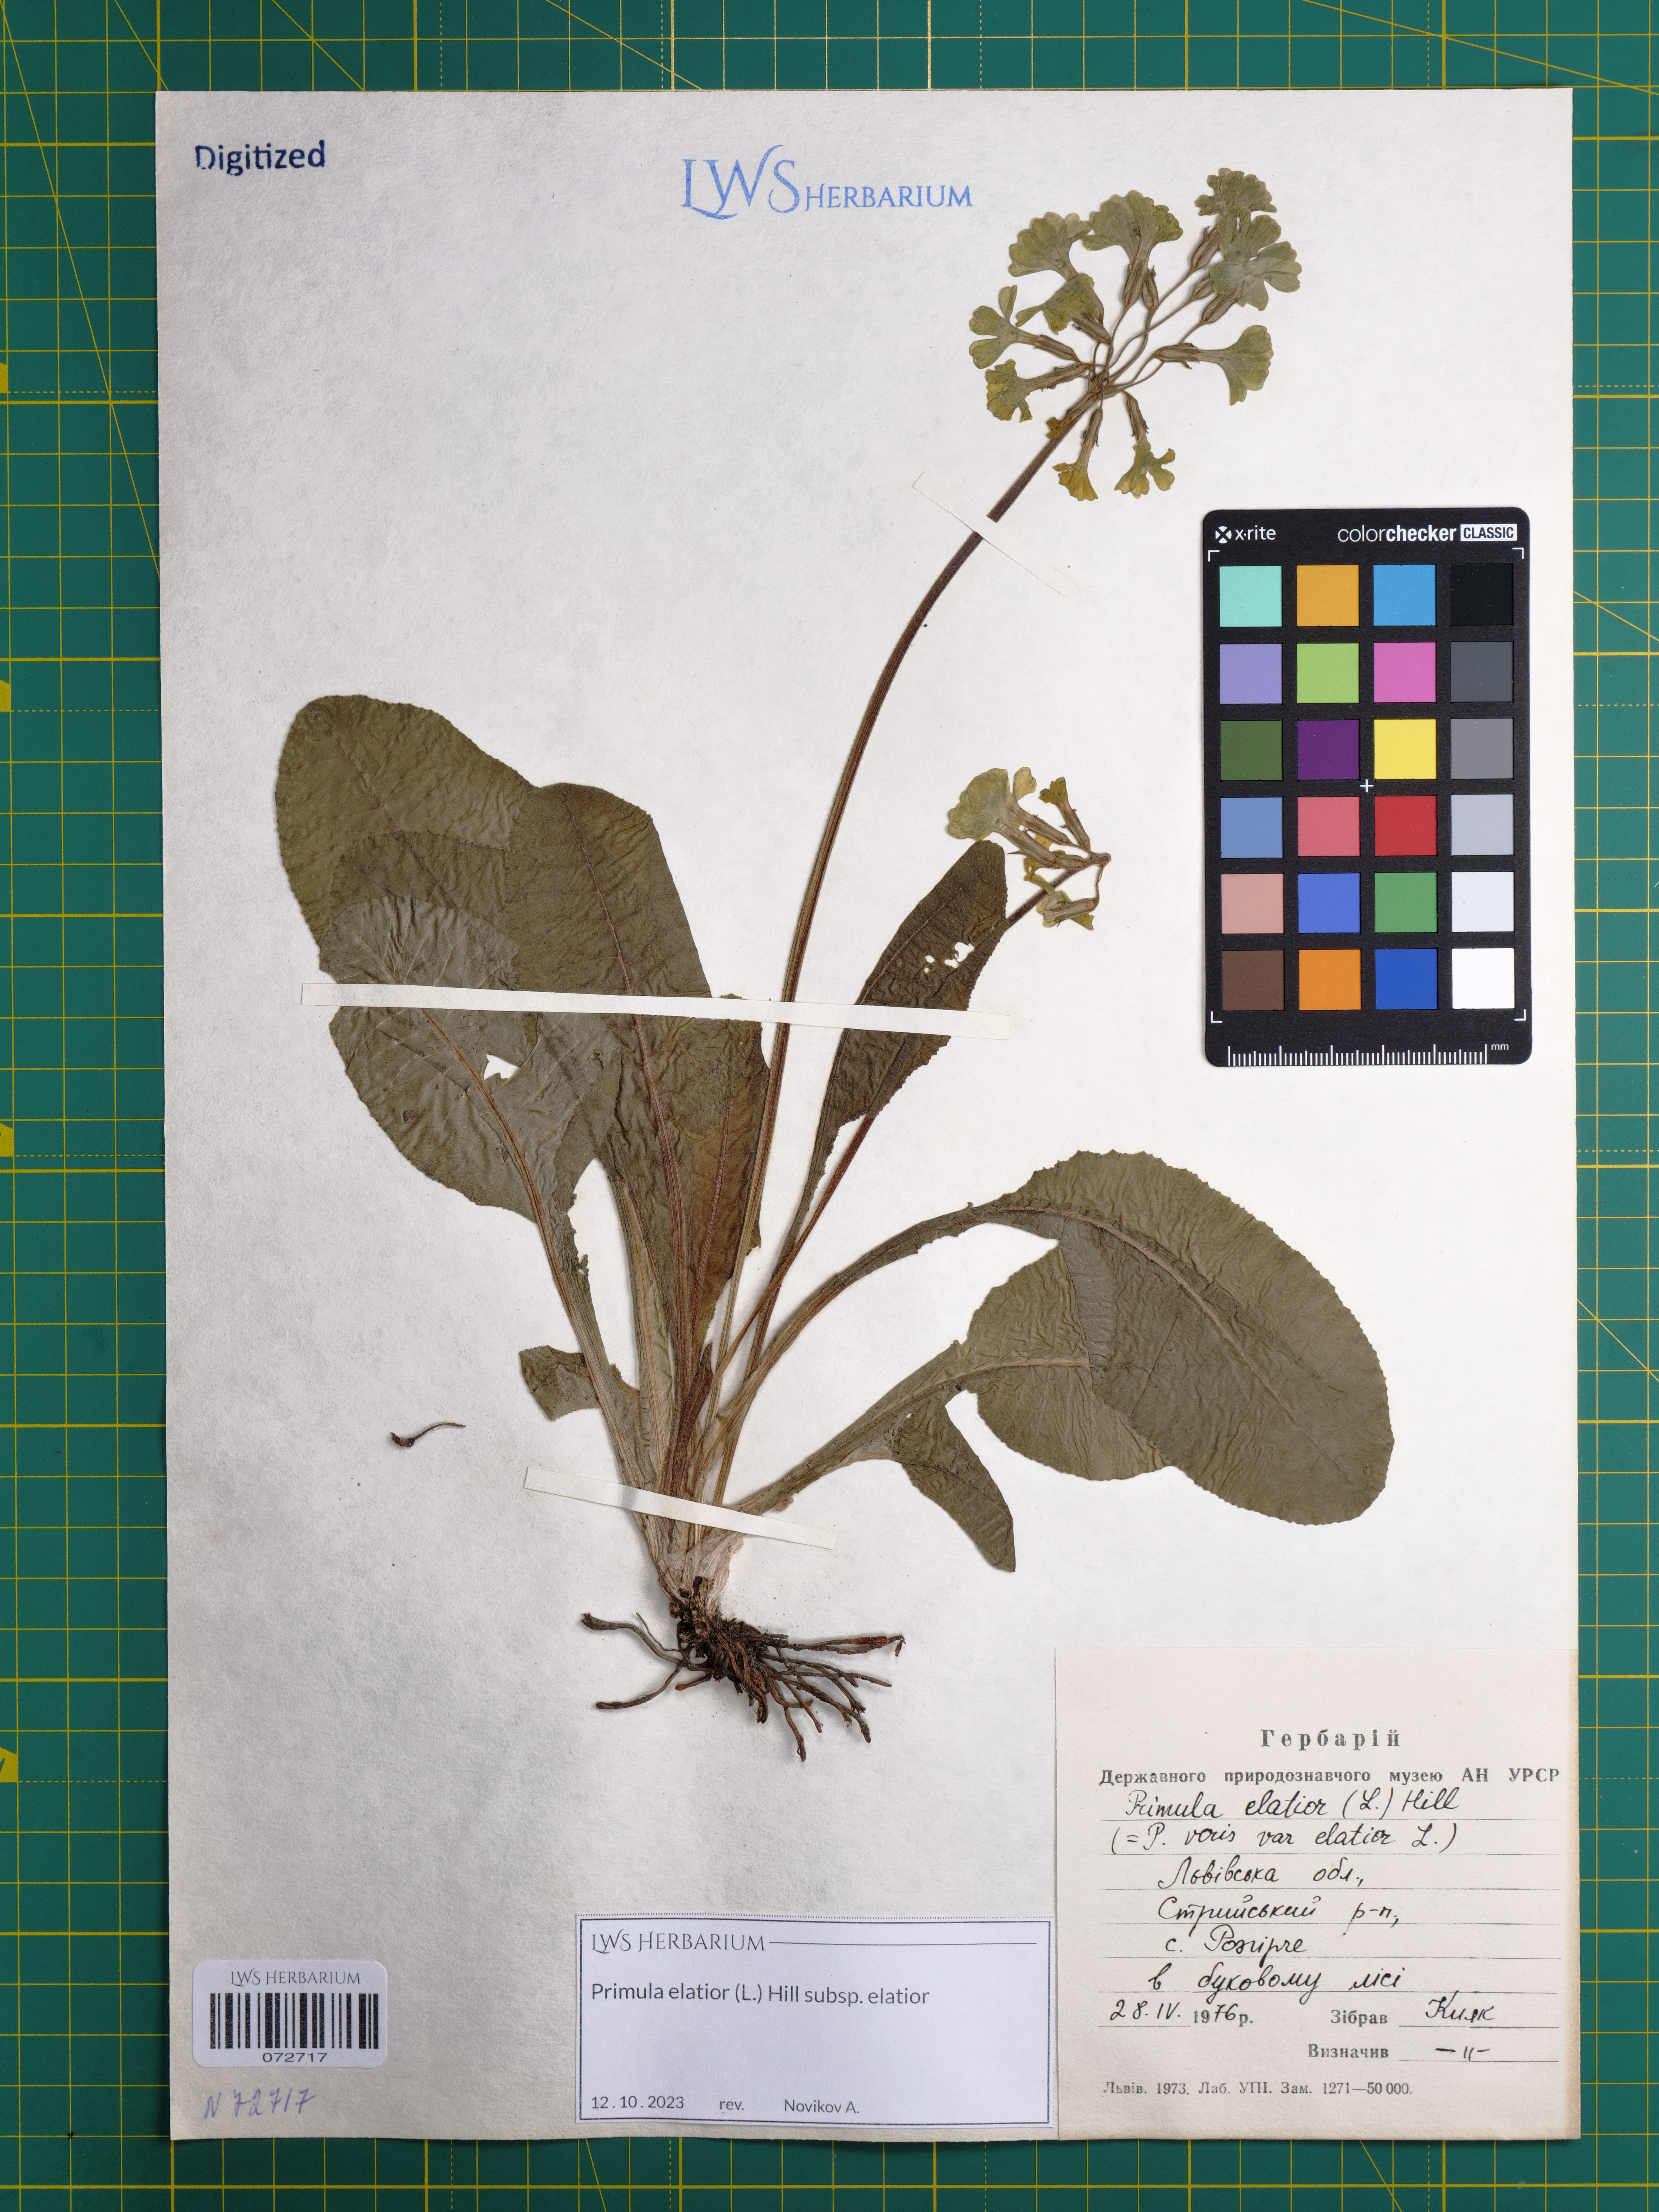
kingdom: Plantae
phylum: Tracheophyta
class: Magnoliopsida
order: Ericales
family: Primulaceae
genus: Primula
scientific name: Primula elatior
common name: Oxlip
